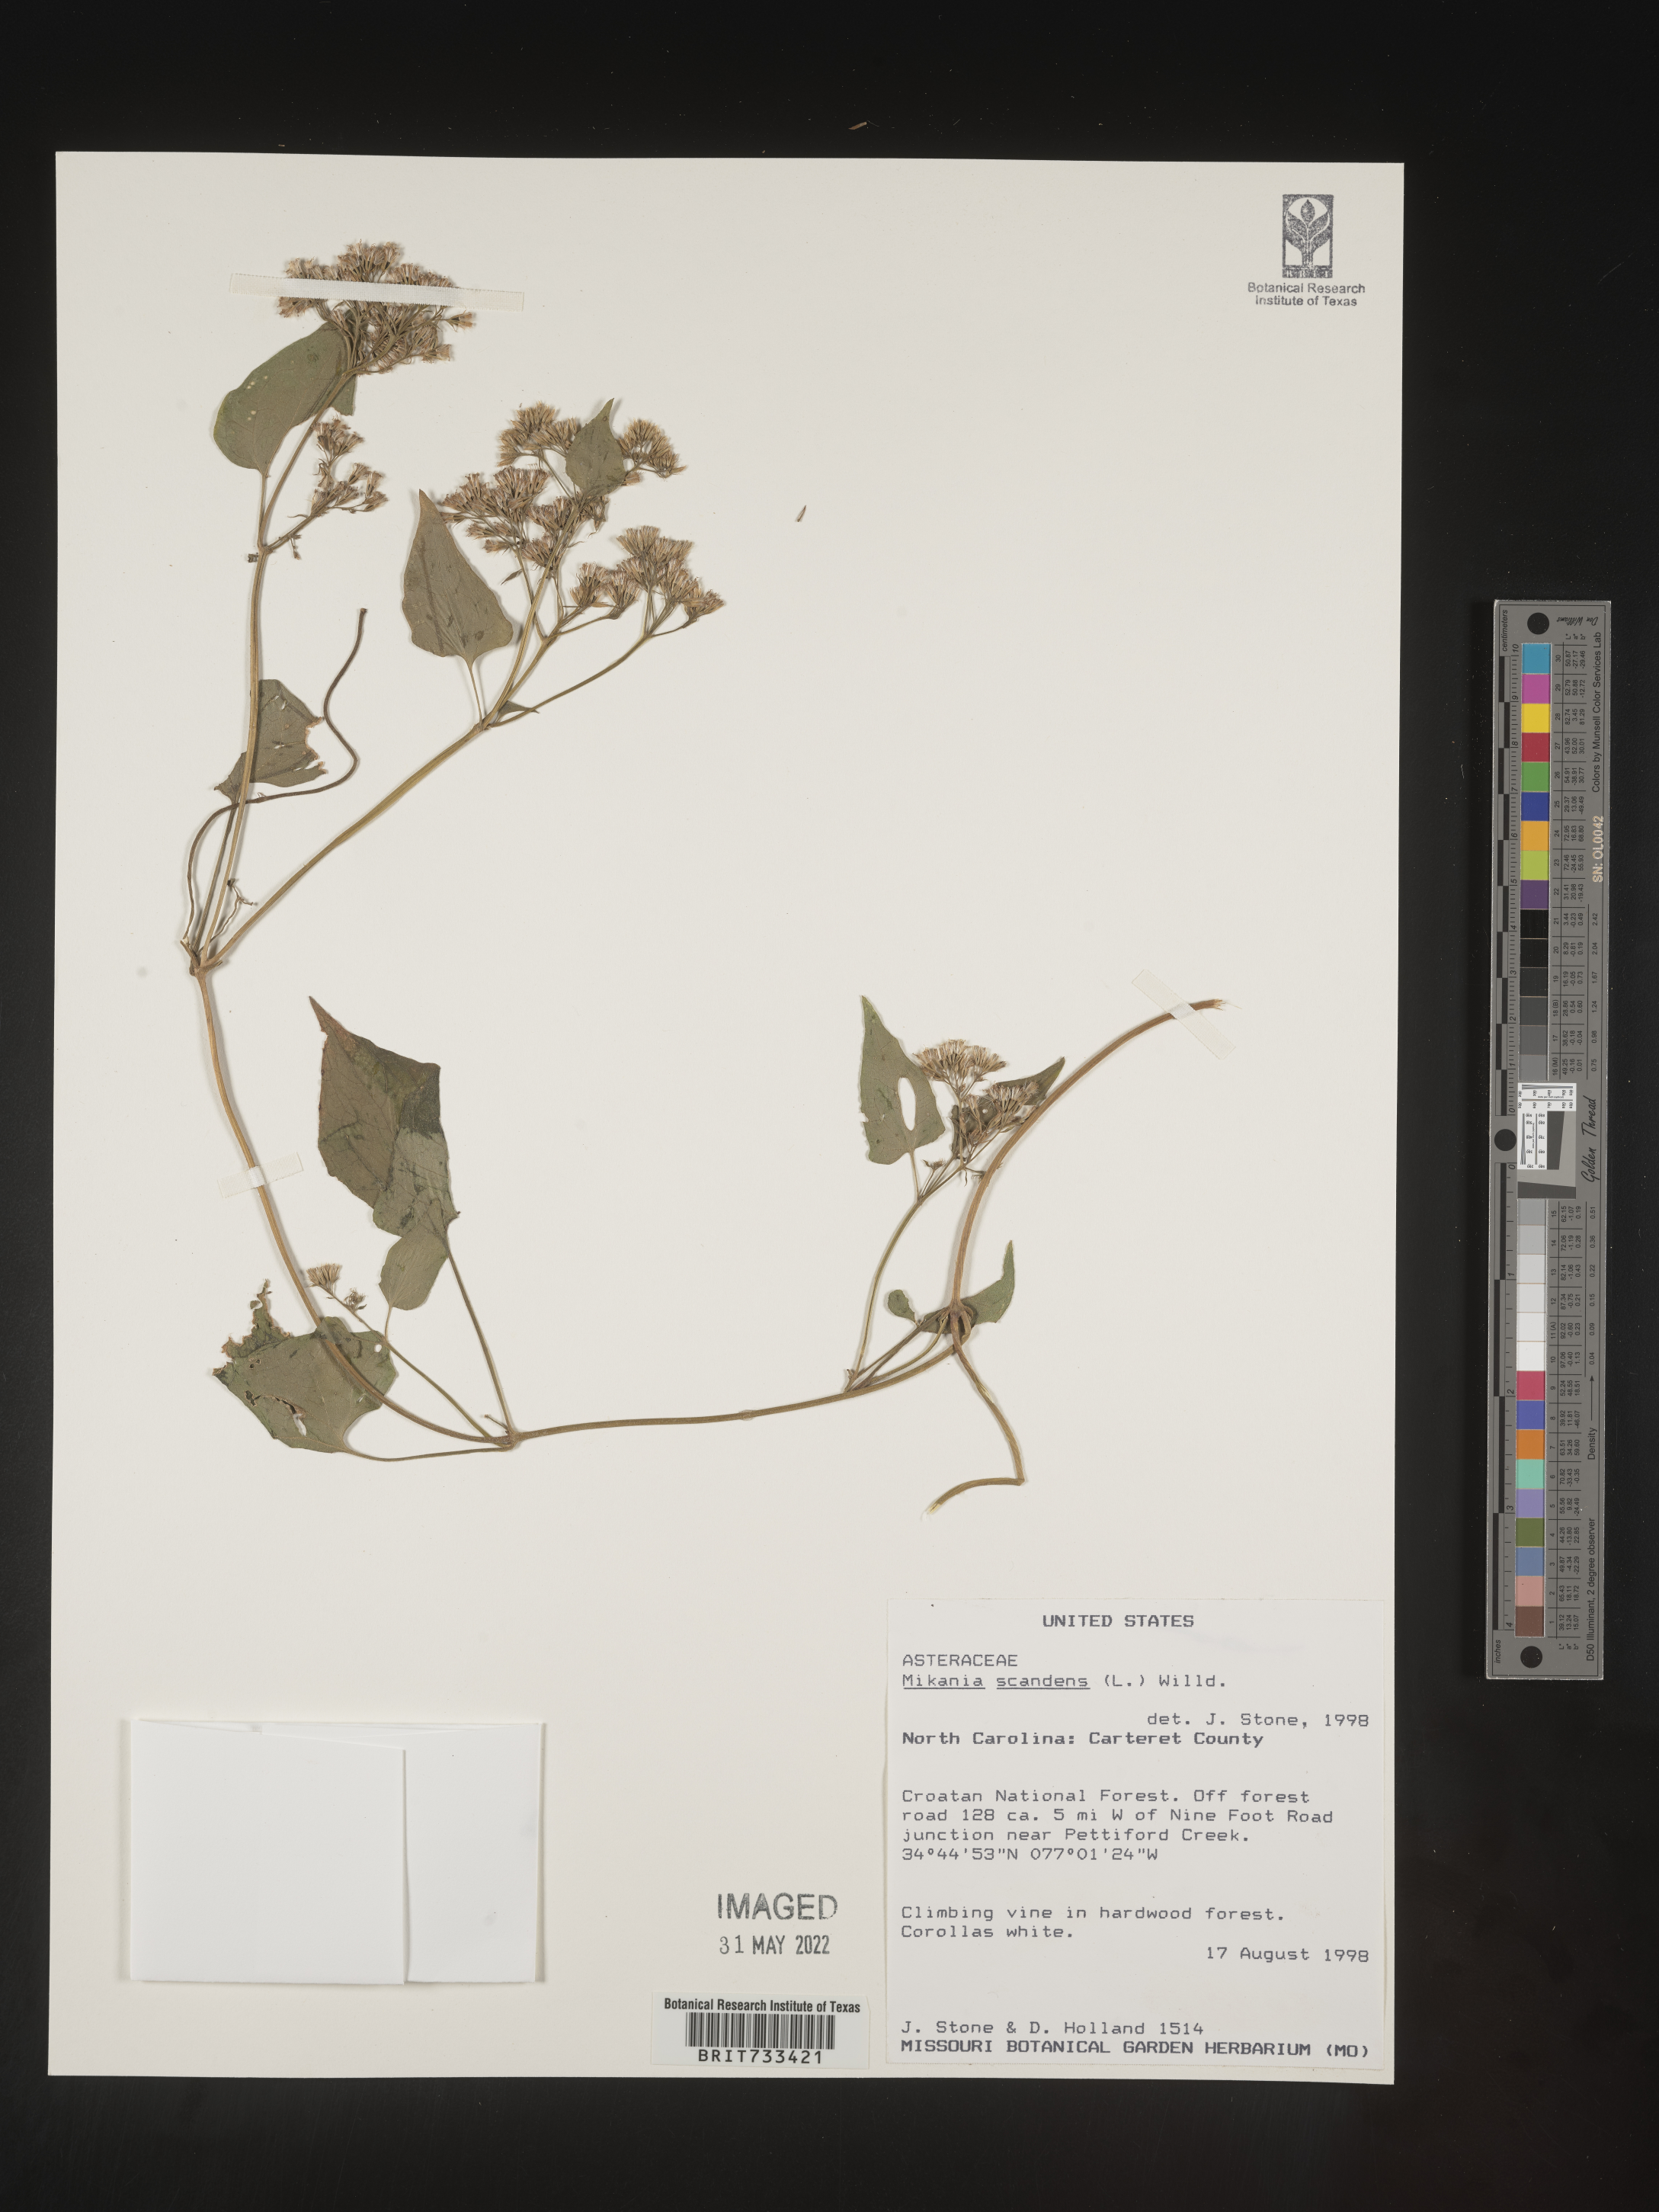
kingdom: Plantae
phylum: Tracheophyta
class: Magnoliopsida
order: Asterales
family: Asteraceae
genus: Mikania
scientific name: Mikania scandens
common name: Climbing hempvine
